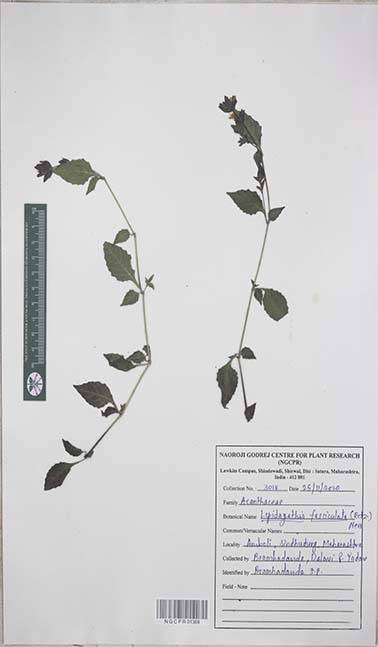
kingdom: Plantae
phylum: Tracheophyta
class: Magnoliopsida
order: Lamiales
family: Acanthaceae
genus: Lepidagathis
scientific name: Lepidagathis fasciculata
